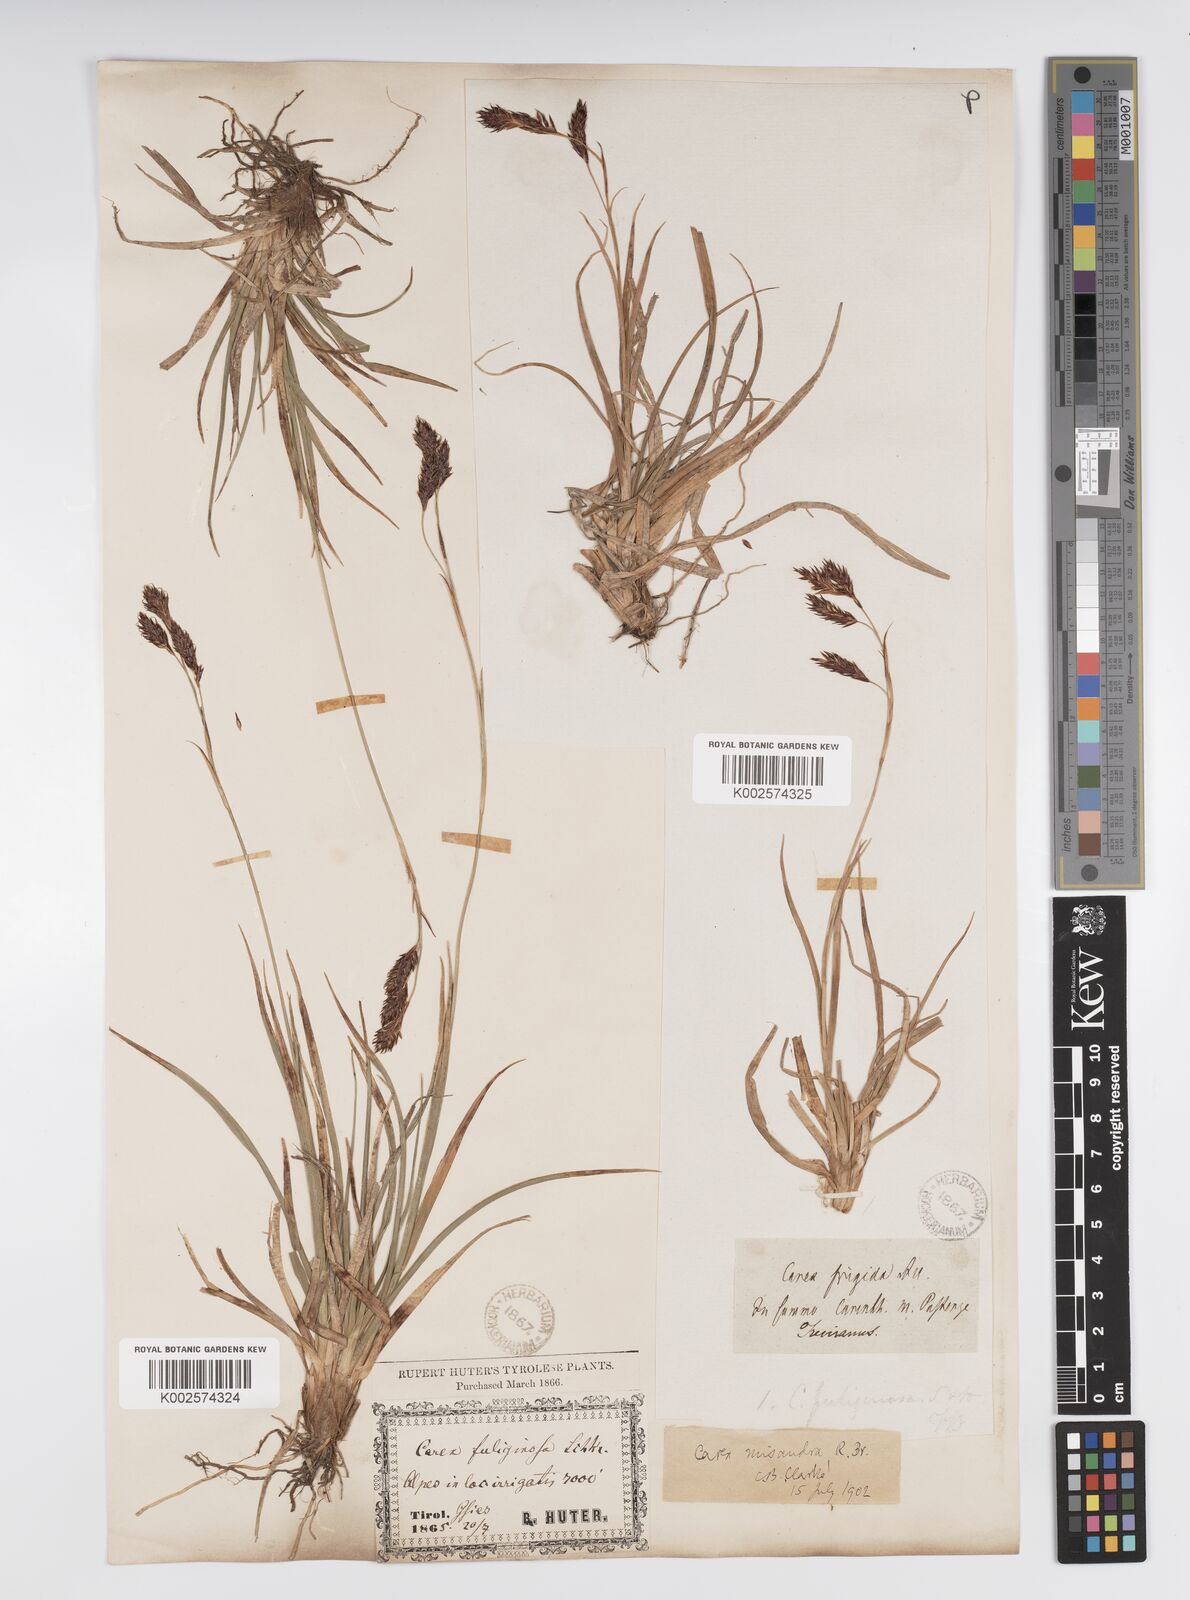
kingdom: Plantae
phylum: Tracheophyta
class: Liliopsida
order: Poales
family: Cyperaceae
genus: Carex
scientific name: Carex fuliginosa
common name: Few-flowered sedge
